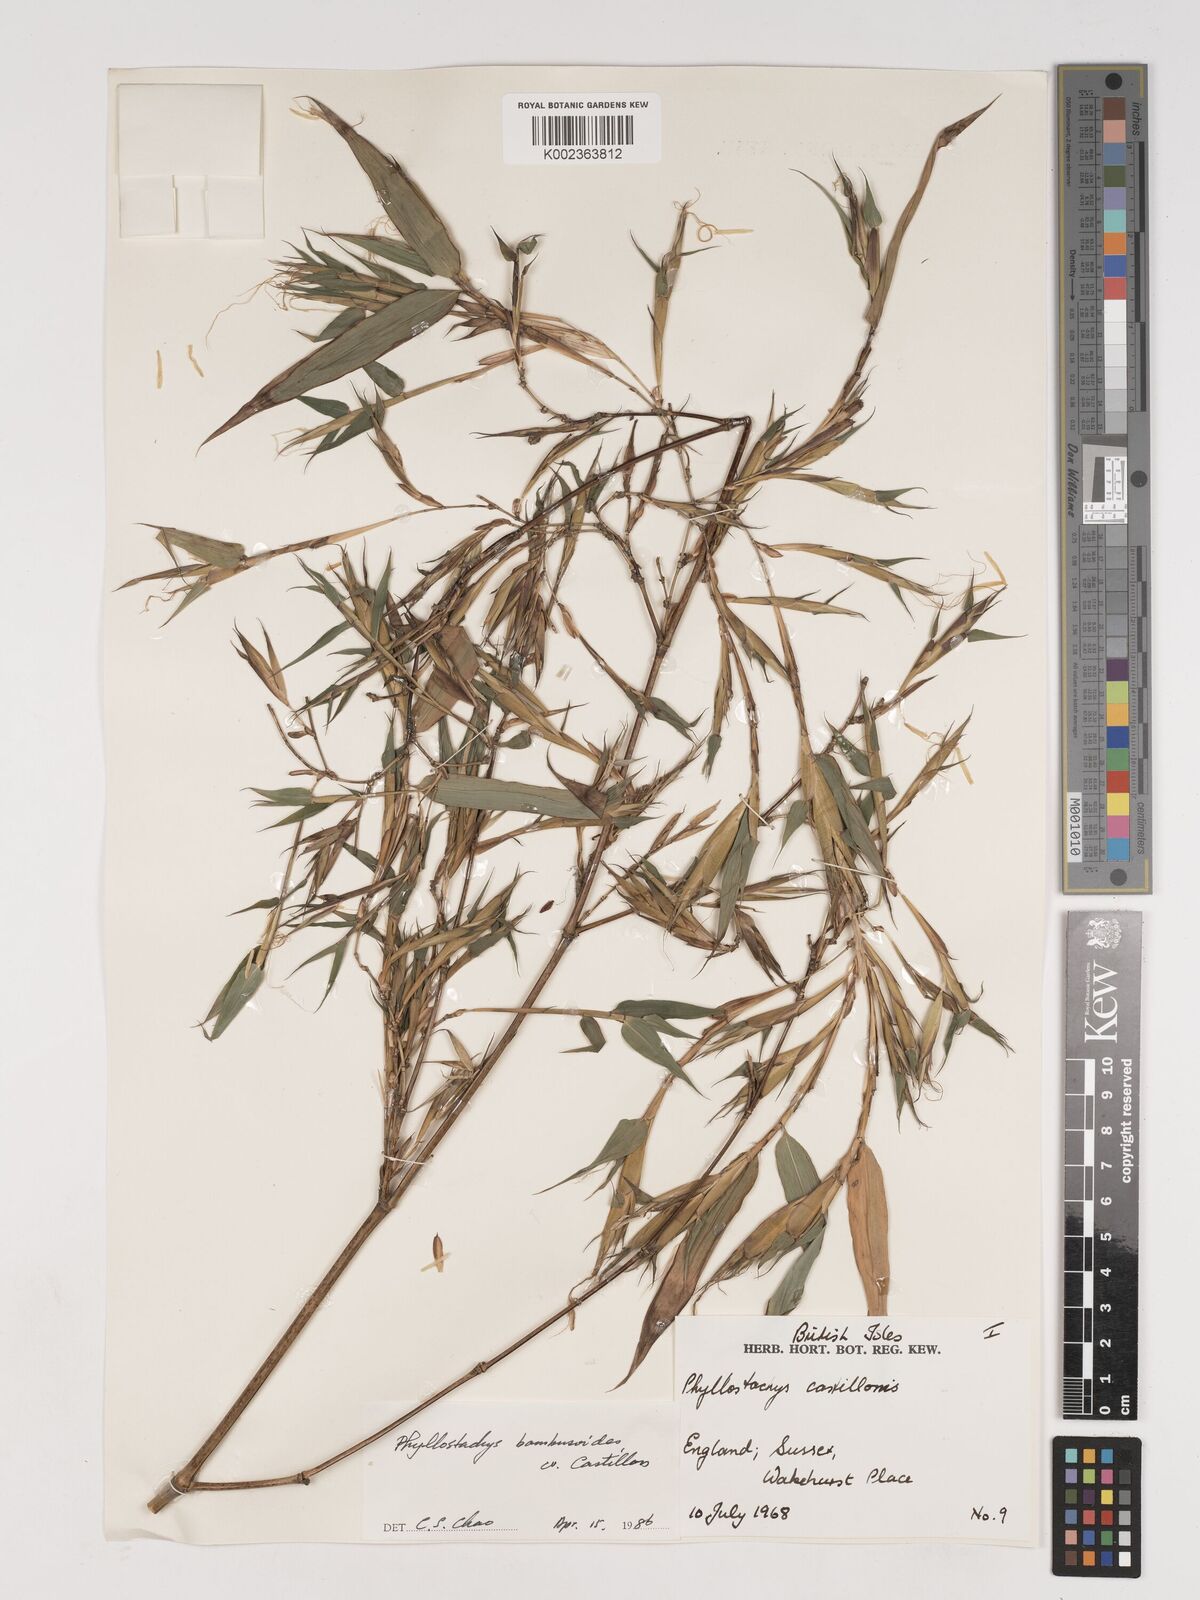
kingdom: Plantae
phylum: Tracheophyta
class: Liliopsida
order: Poales
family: Poaceae
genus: Phyllostachys
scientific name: Phyllostachys reticulata
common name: Bamboo
